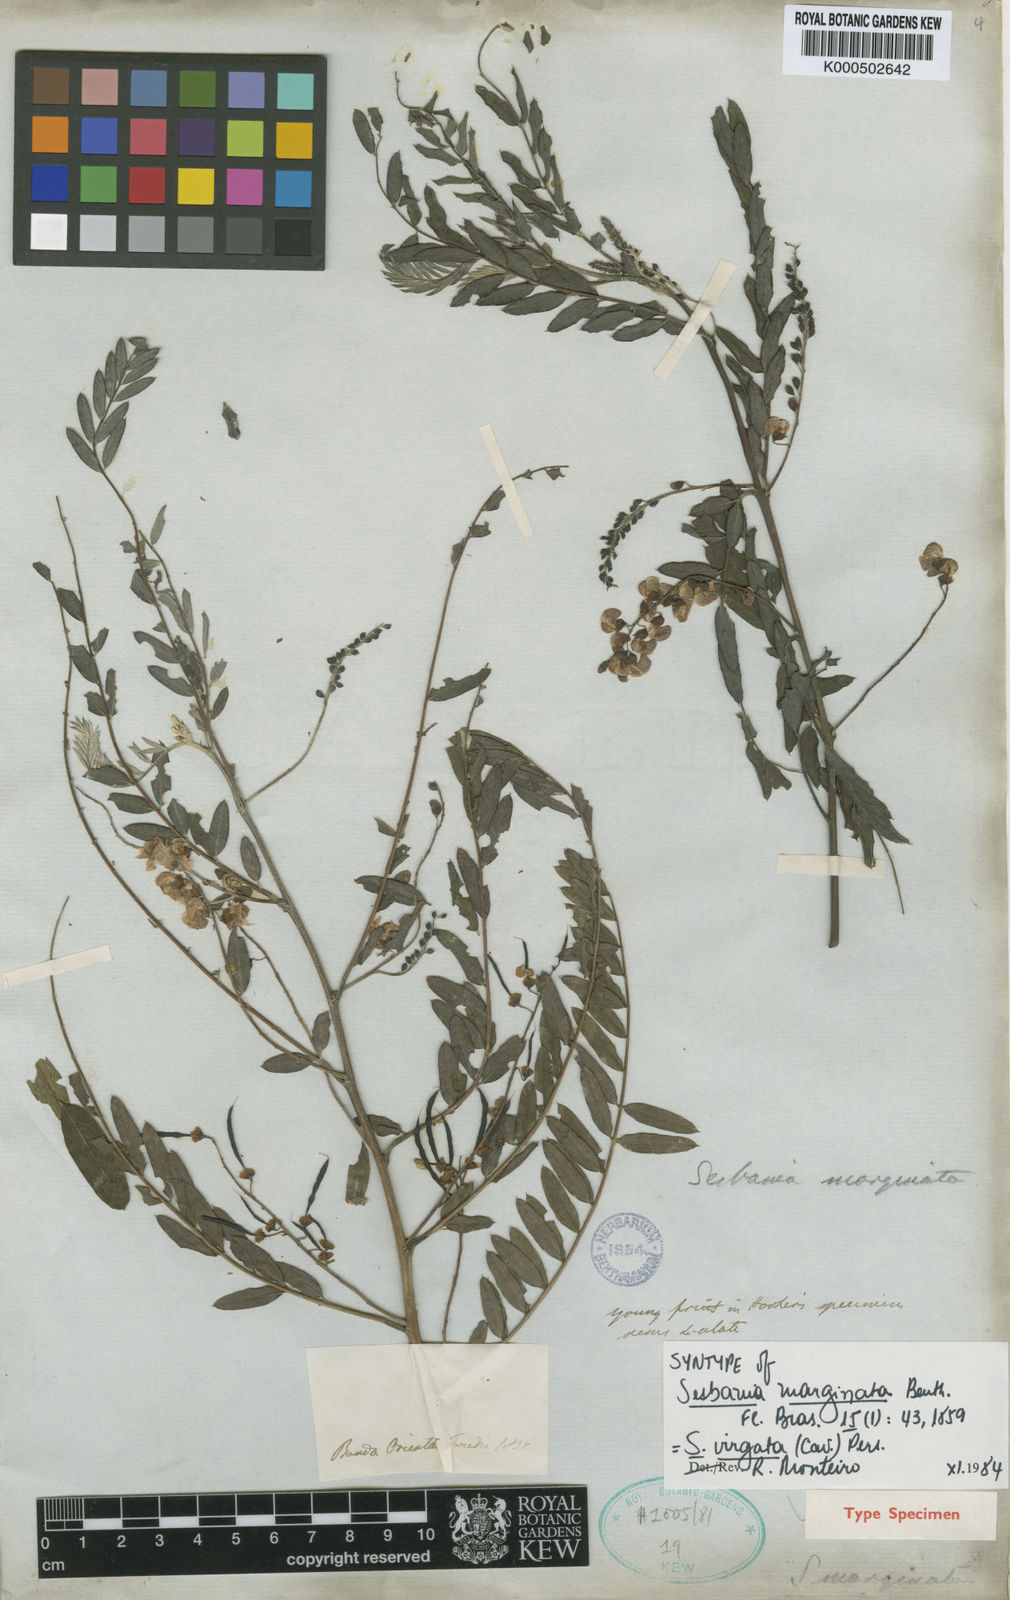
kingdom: Plantae
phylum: Tracheophyta
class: Magnoliopsida
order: Fabales
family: Fabaceae
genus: Sesbania
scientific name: Sesbania
